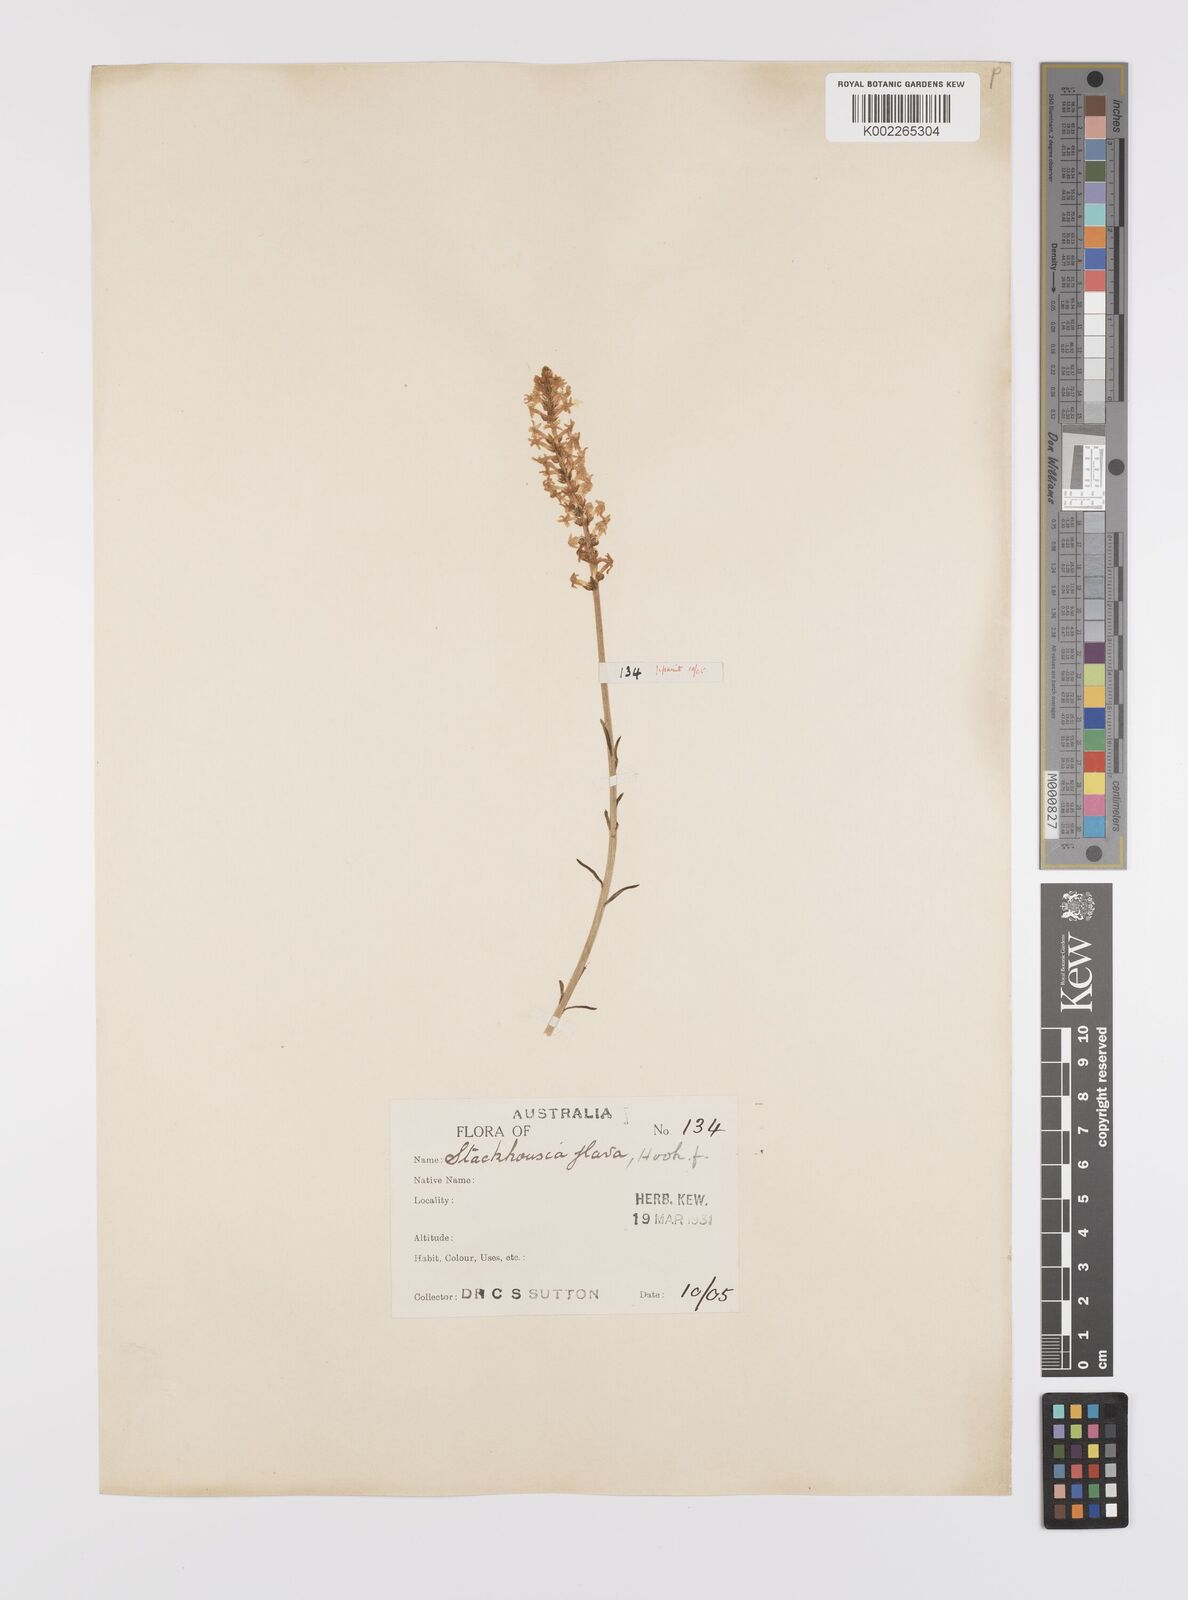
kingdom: Plantae
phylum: Tracheophyta
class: Magnoliopsida
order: Celastrales
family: Celastraceae
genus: Stackhousia
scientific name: Stackhousia viminea
